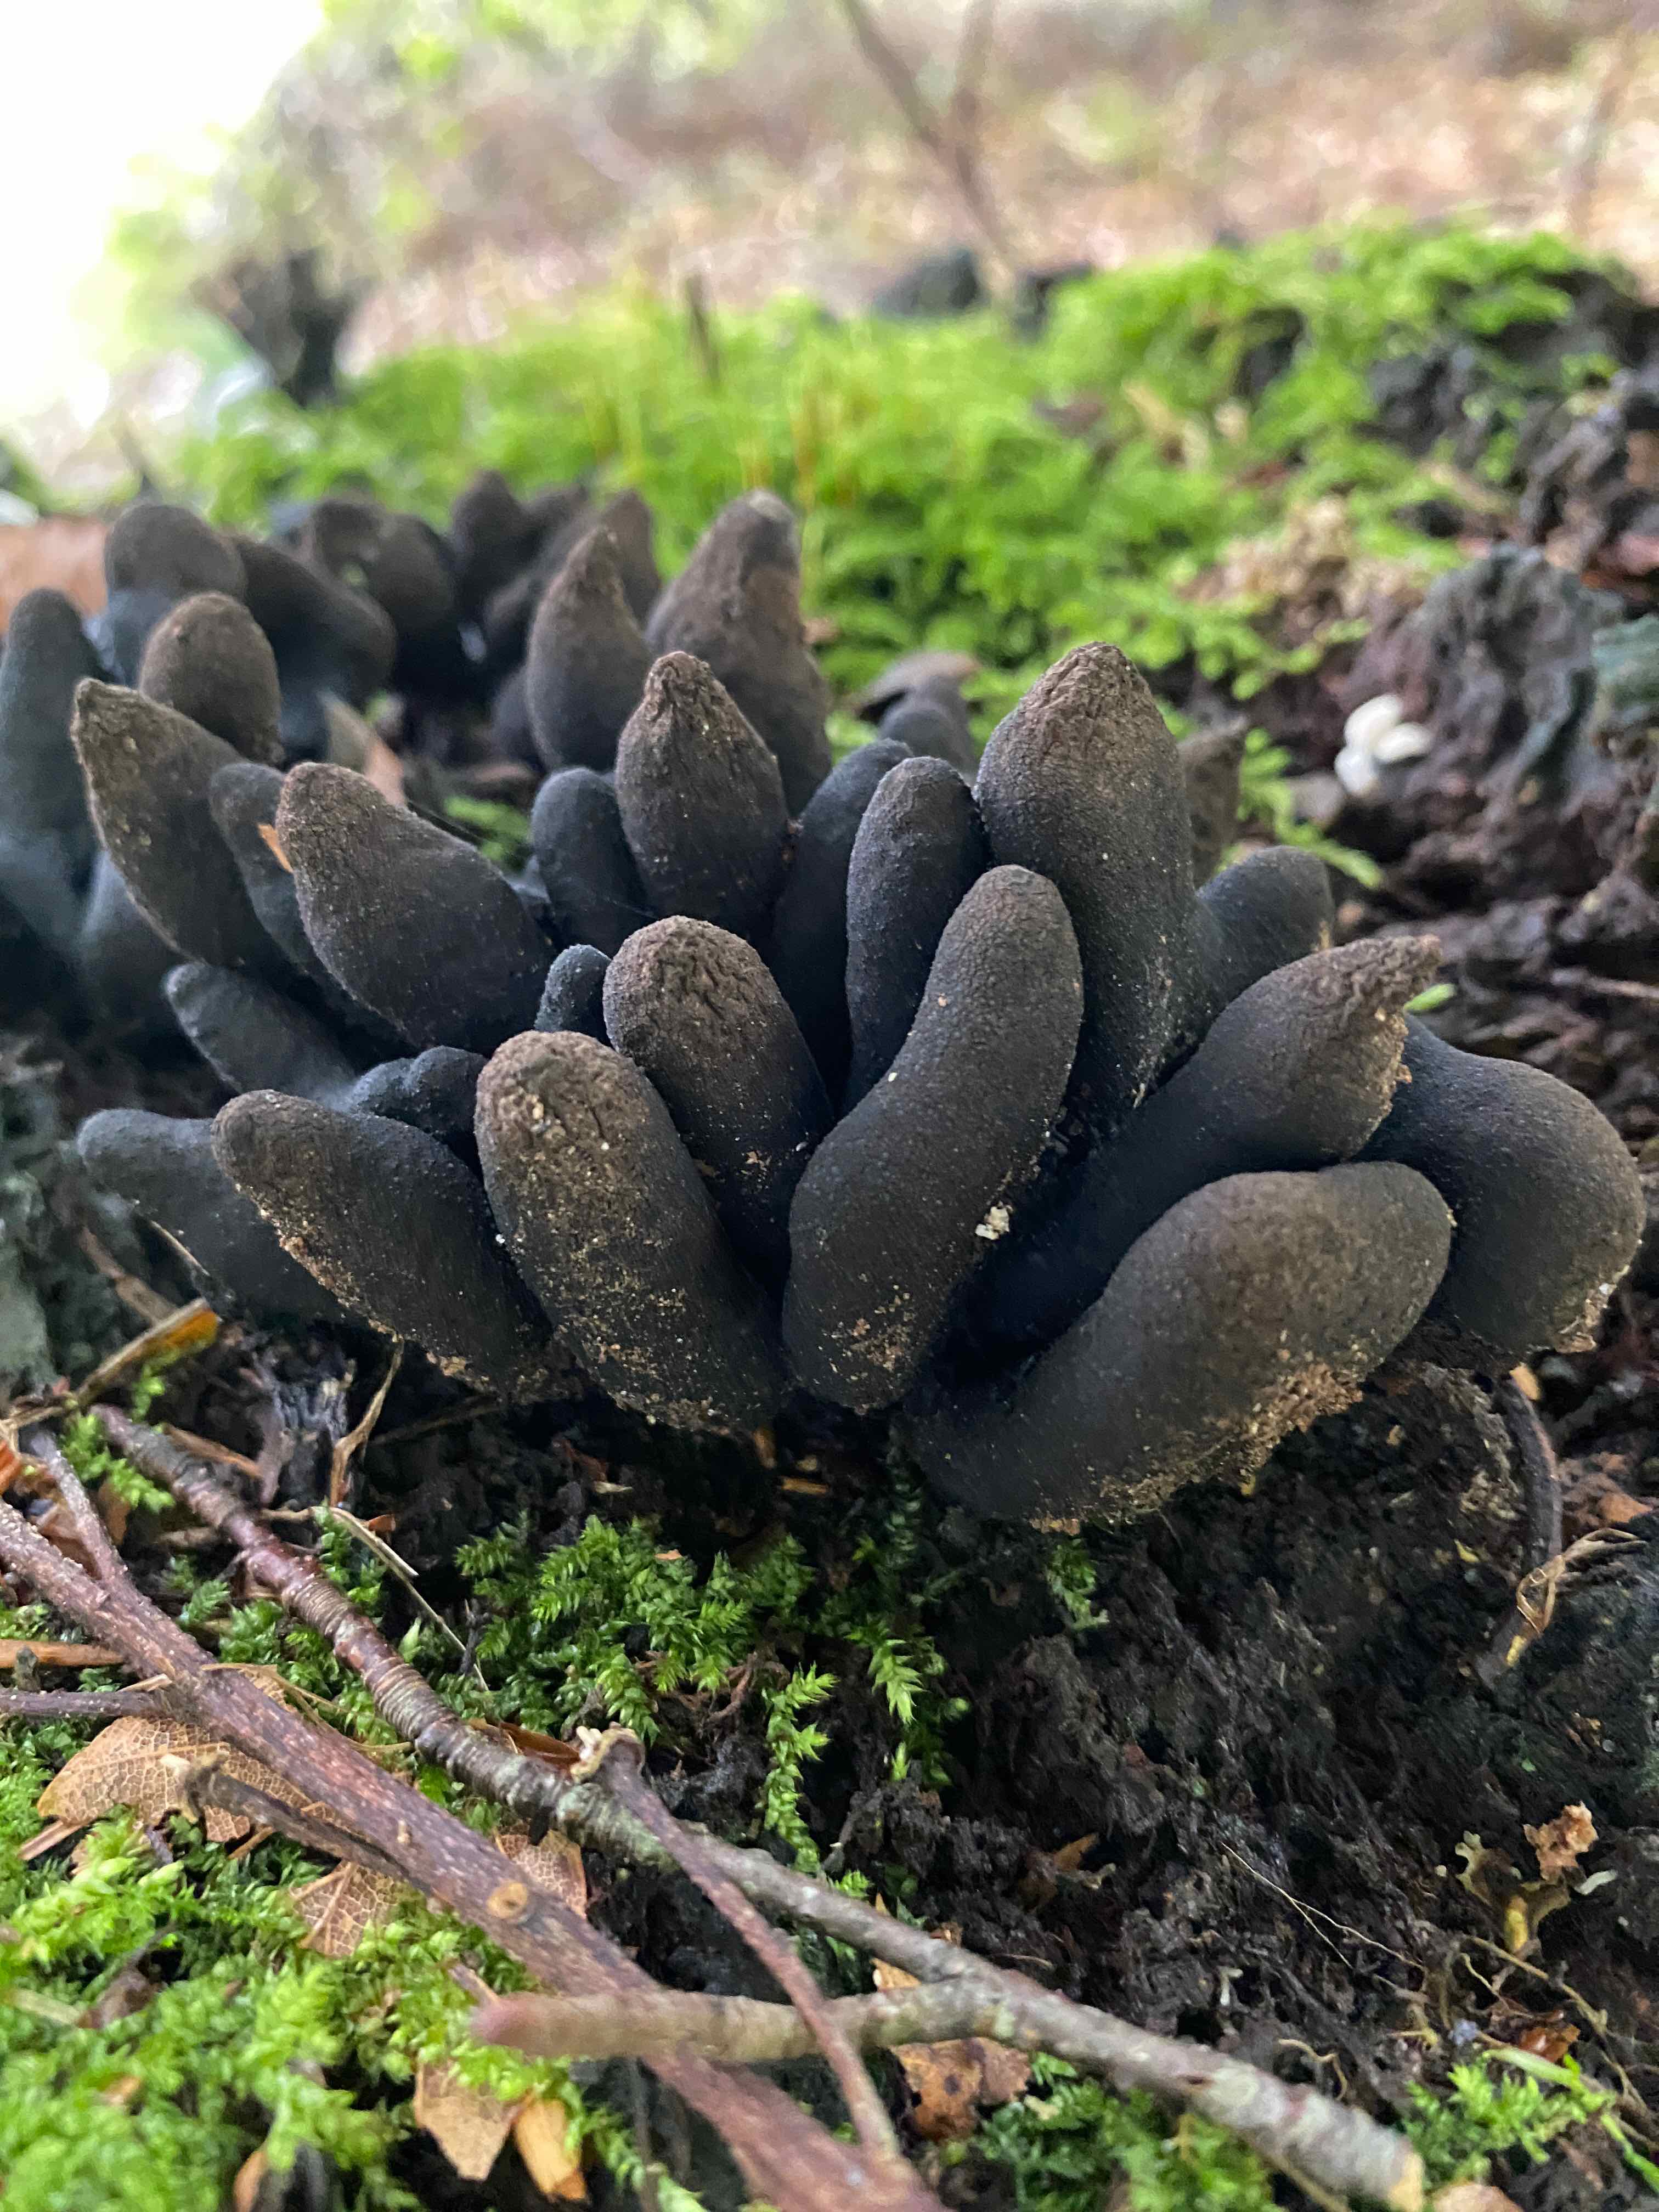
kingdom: Fungi
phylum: Ascomycota
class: Sordariomycetes
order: Xylariales
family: Xylariaceae
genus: Xylaria
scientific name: Xylaria polymorpha
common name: kølle-stødsvamp
